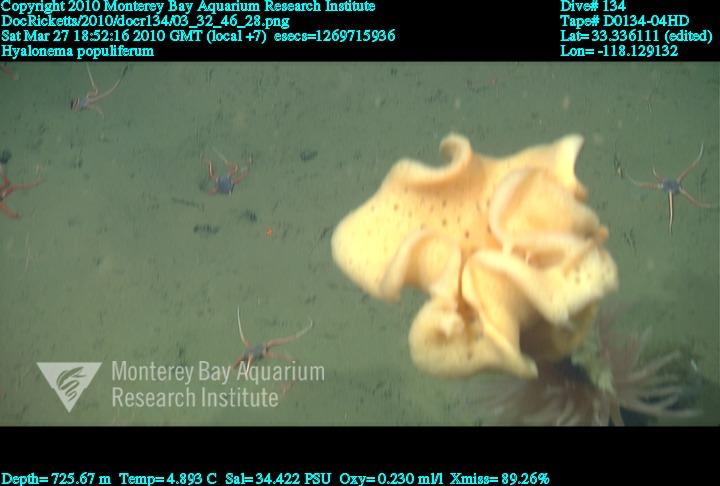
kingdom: Animalia
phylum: Porifera
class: Hexactinellida
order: Amphidiscosida
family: Hyalonematidae
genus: Hyalonema
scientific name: Hyalonema populiferum
